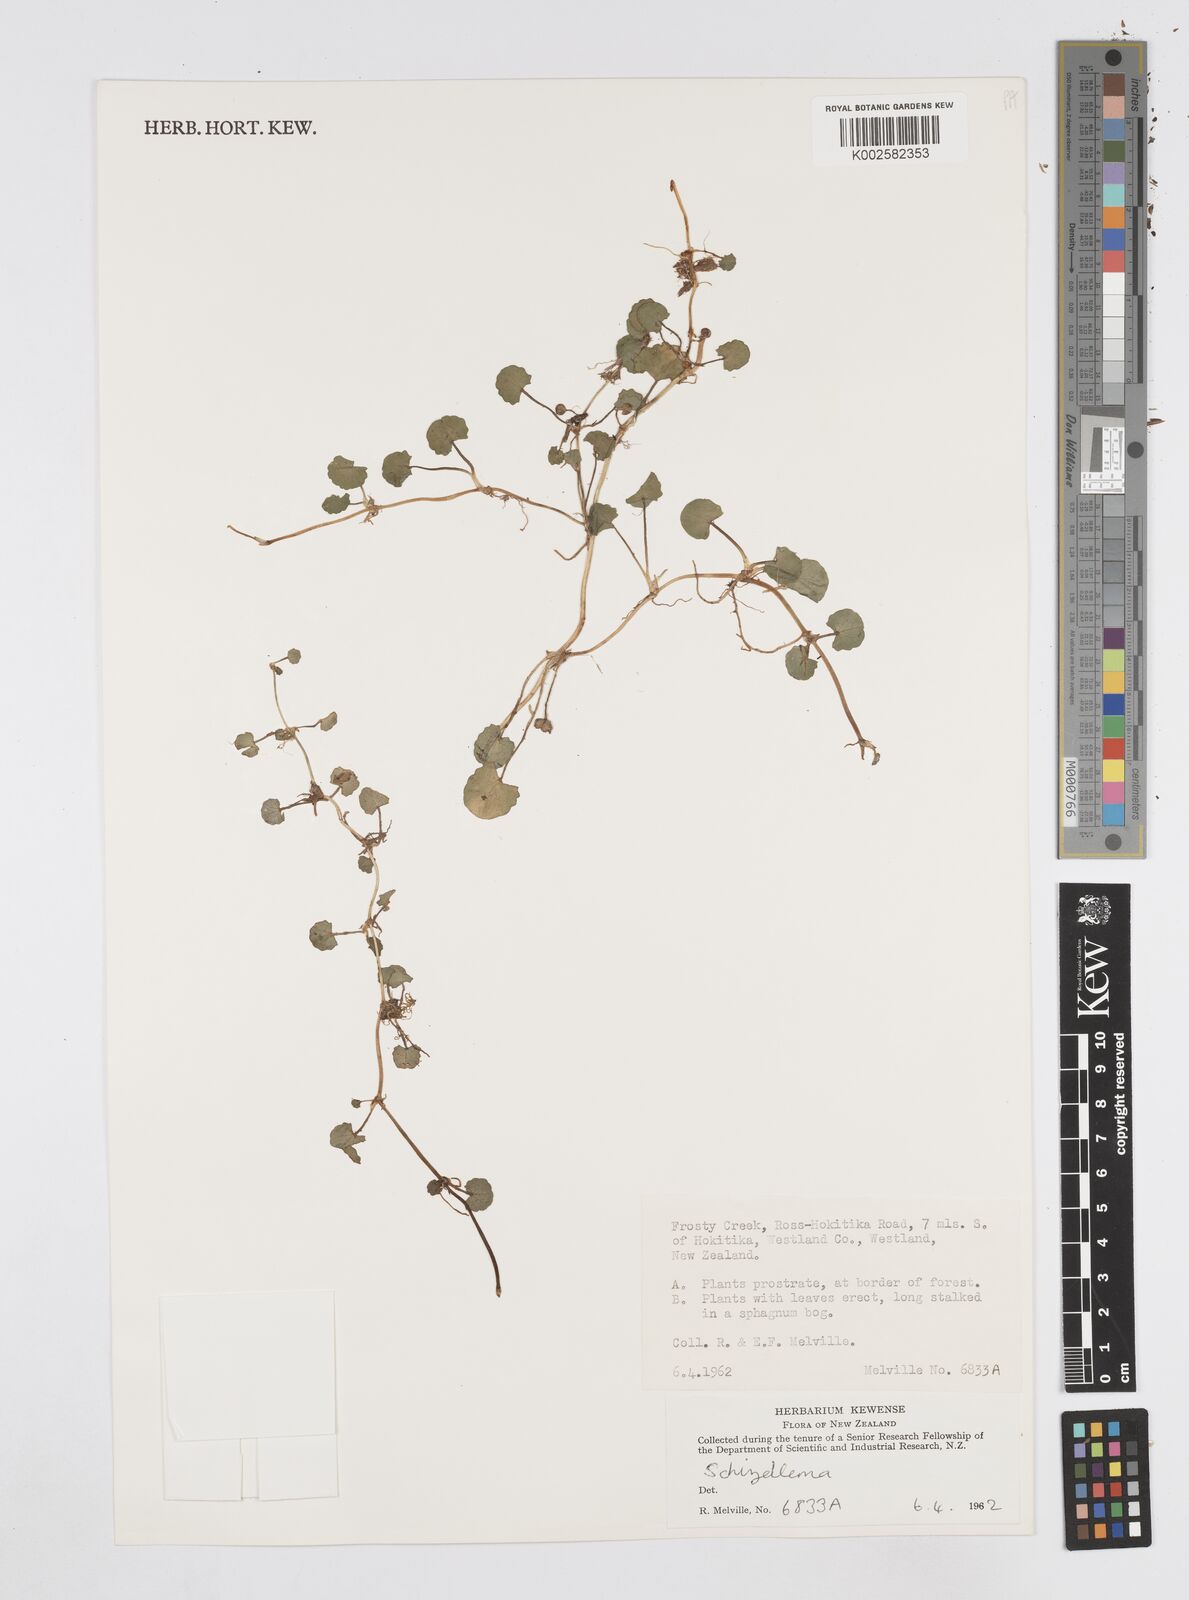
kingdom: Plantae
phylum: Tracheophyta
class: Magnoliopsida
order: Apiales
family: Apiaceae
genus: Azorella
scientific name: Azorella
